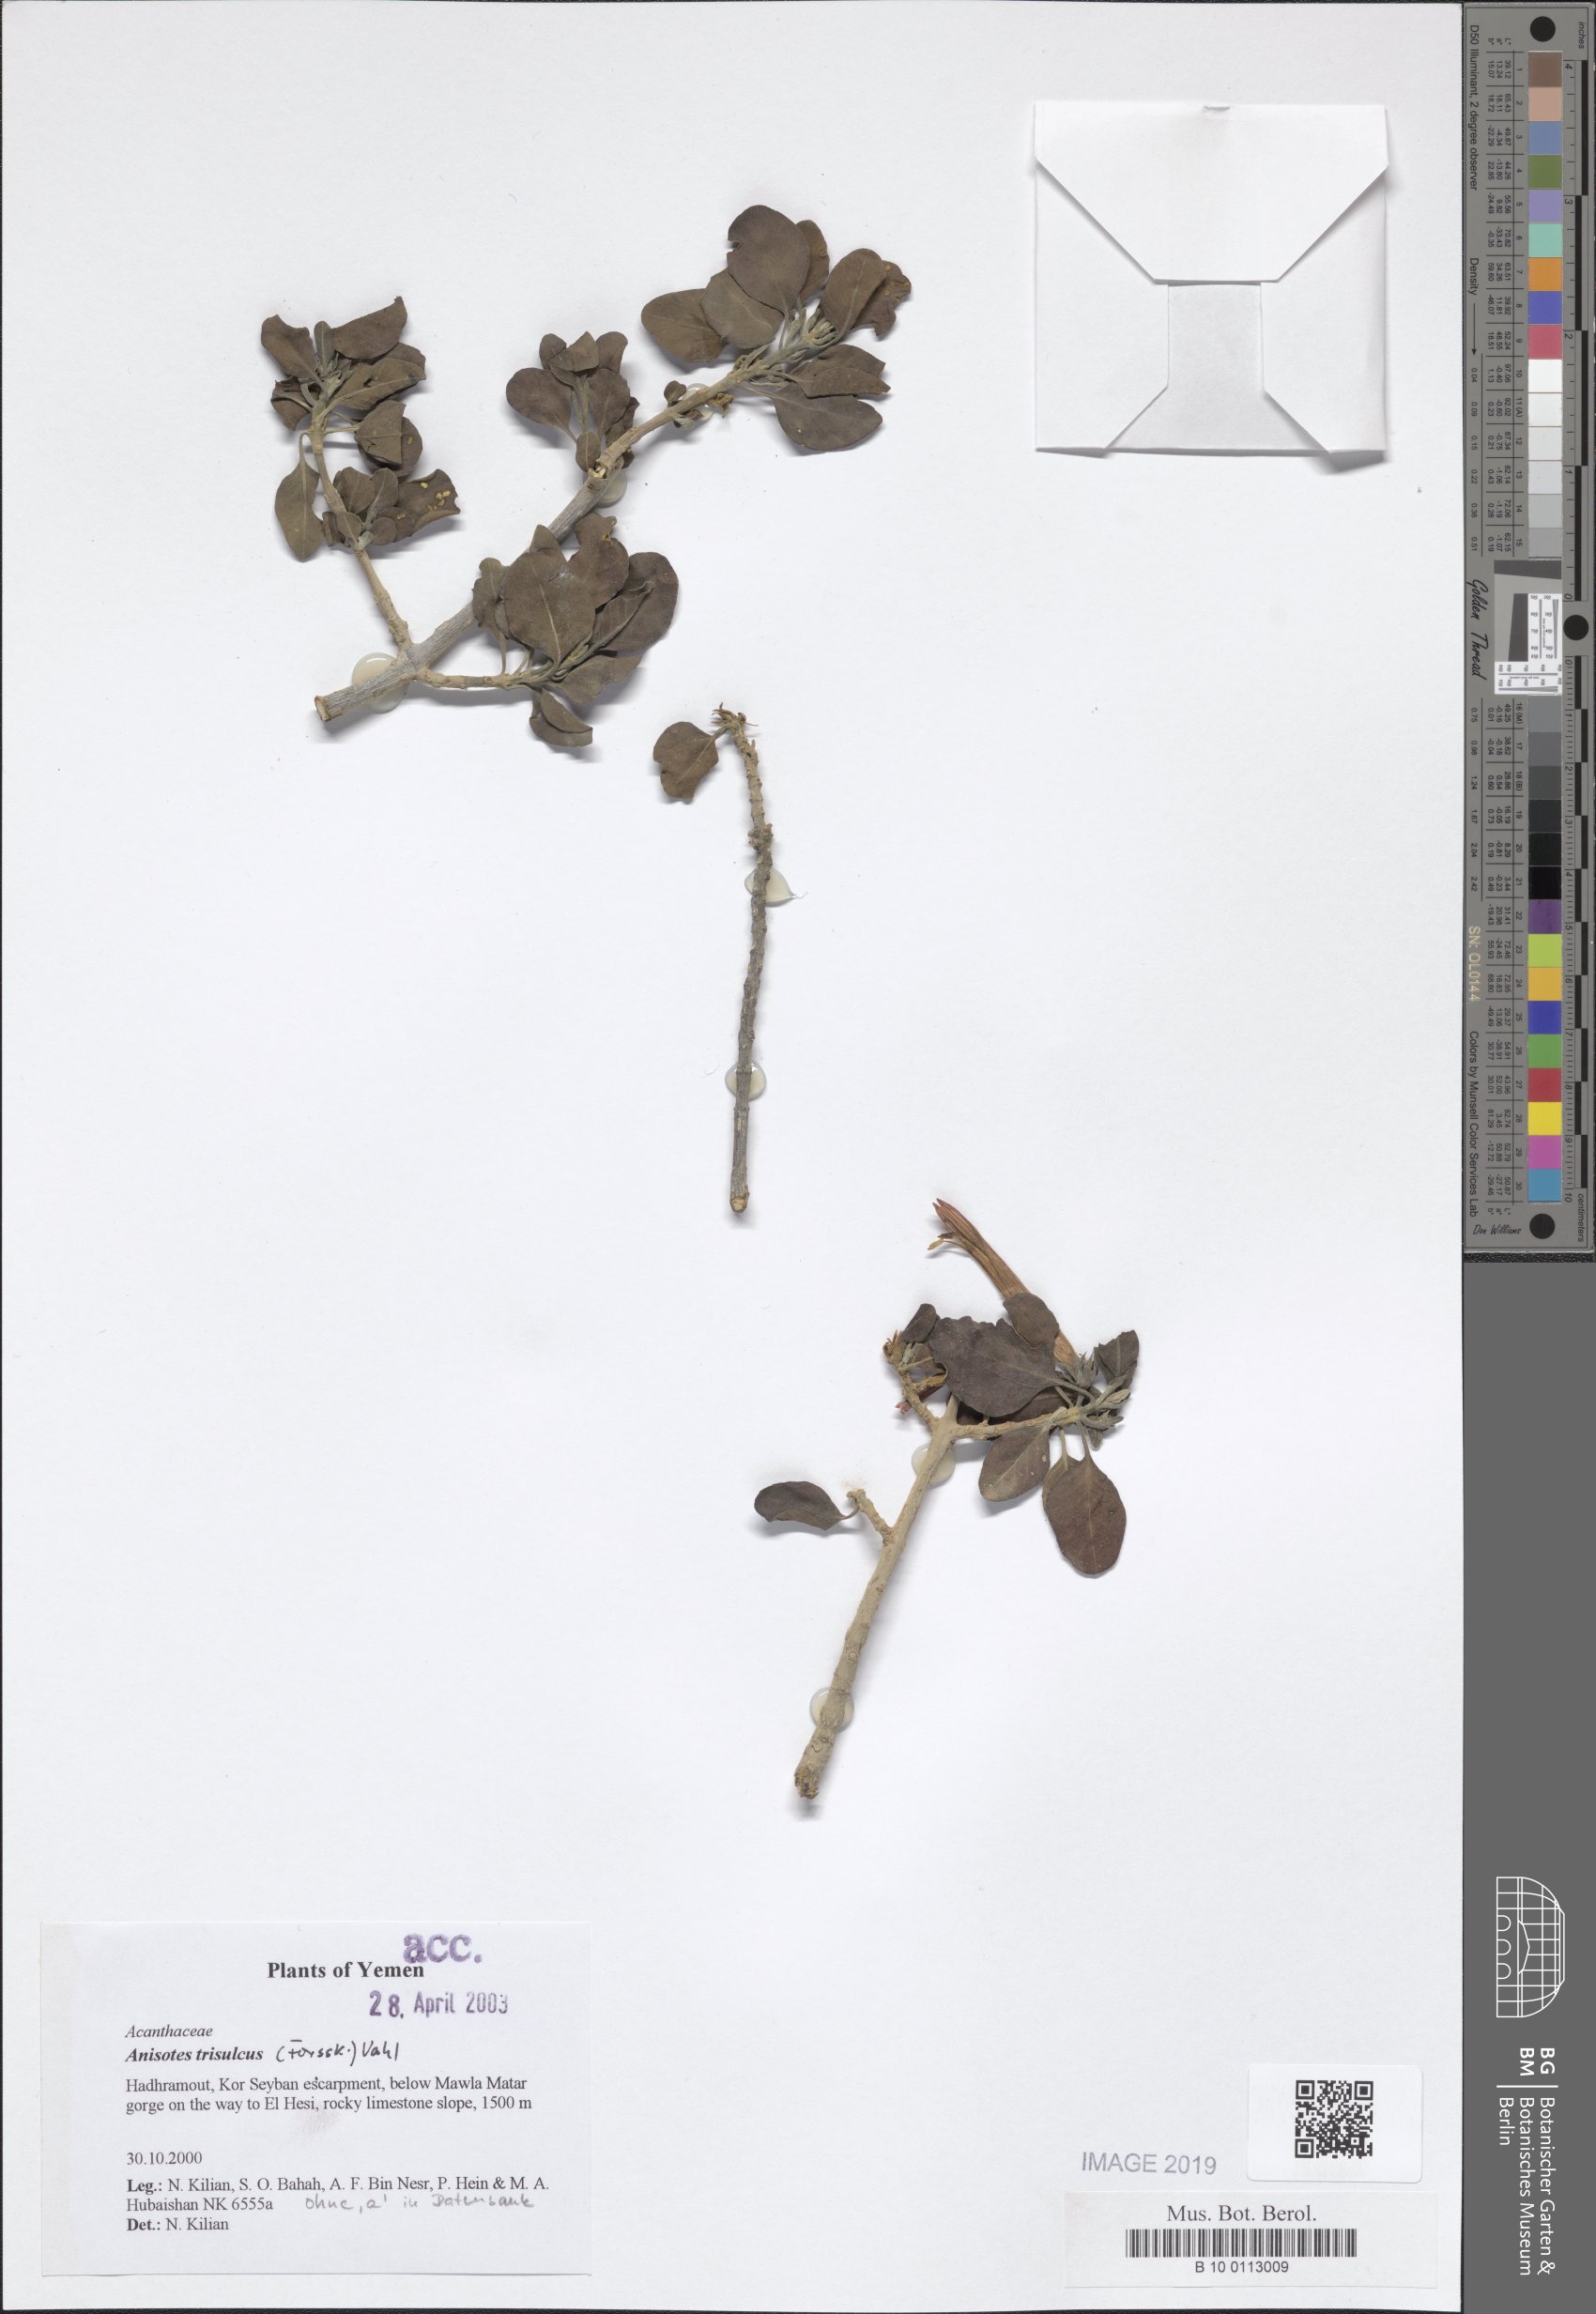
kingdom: Plantae
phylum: Tracheophyta
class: Magnoliopsida
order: Lamiales
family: Acanthaceae
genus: Anisotes
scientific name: Anisotes trisulcus
